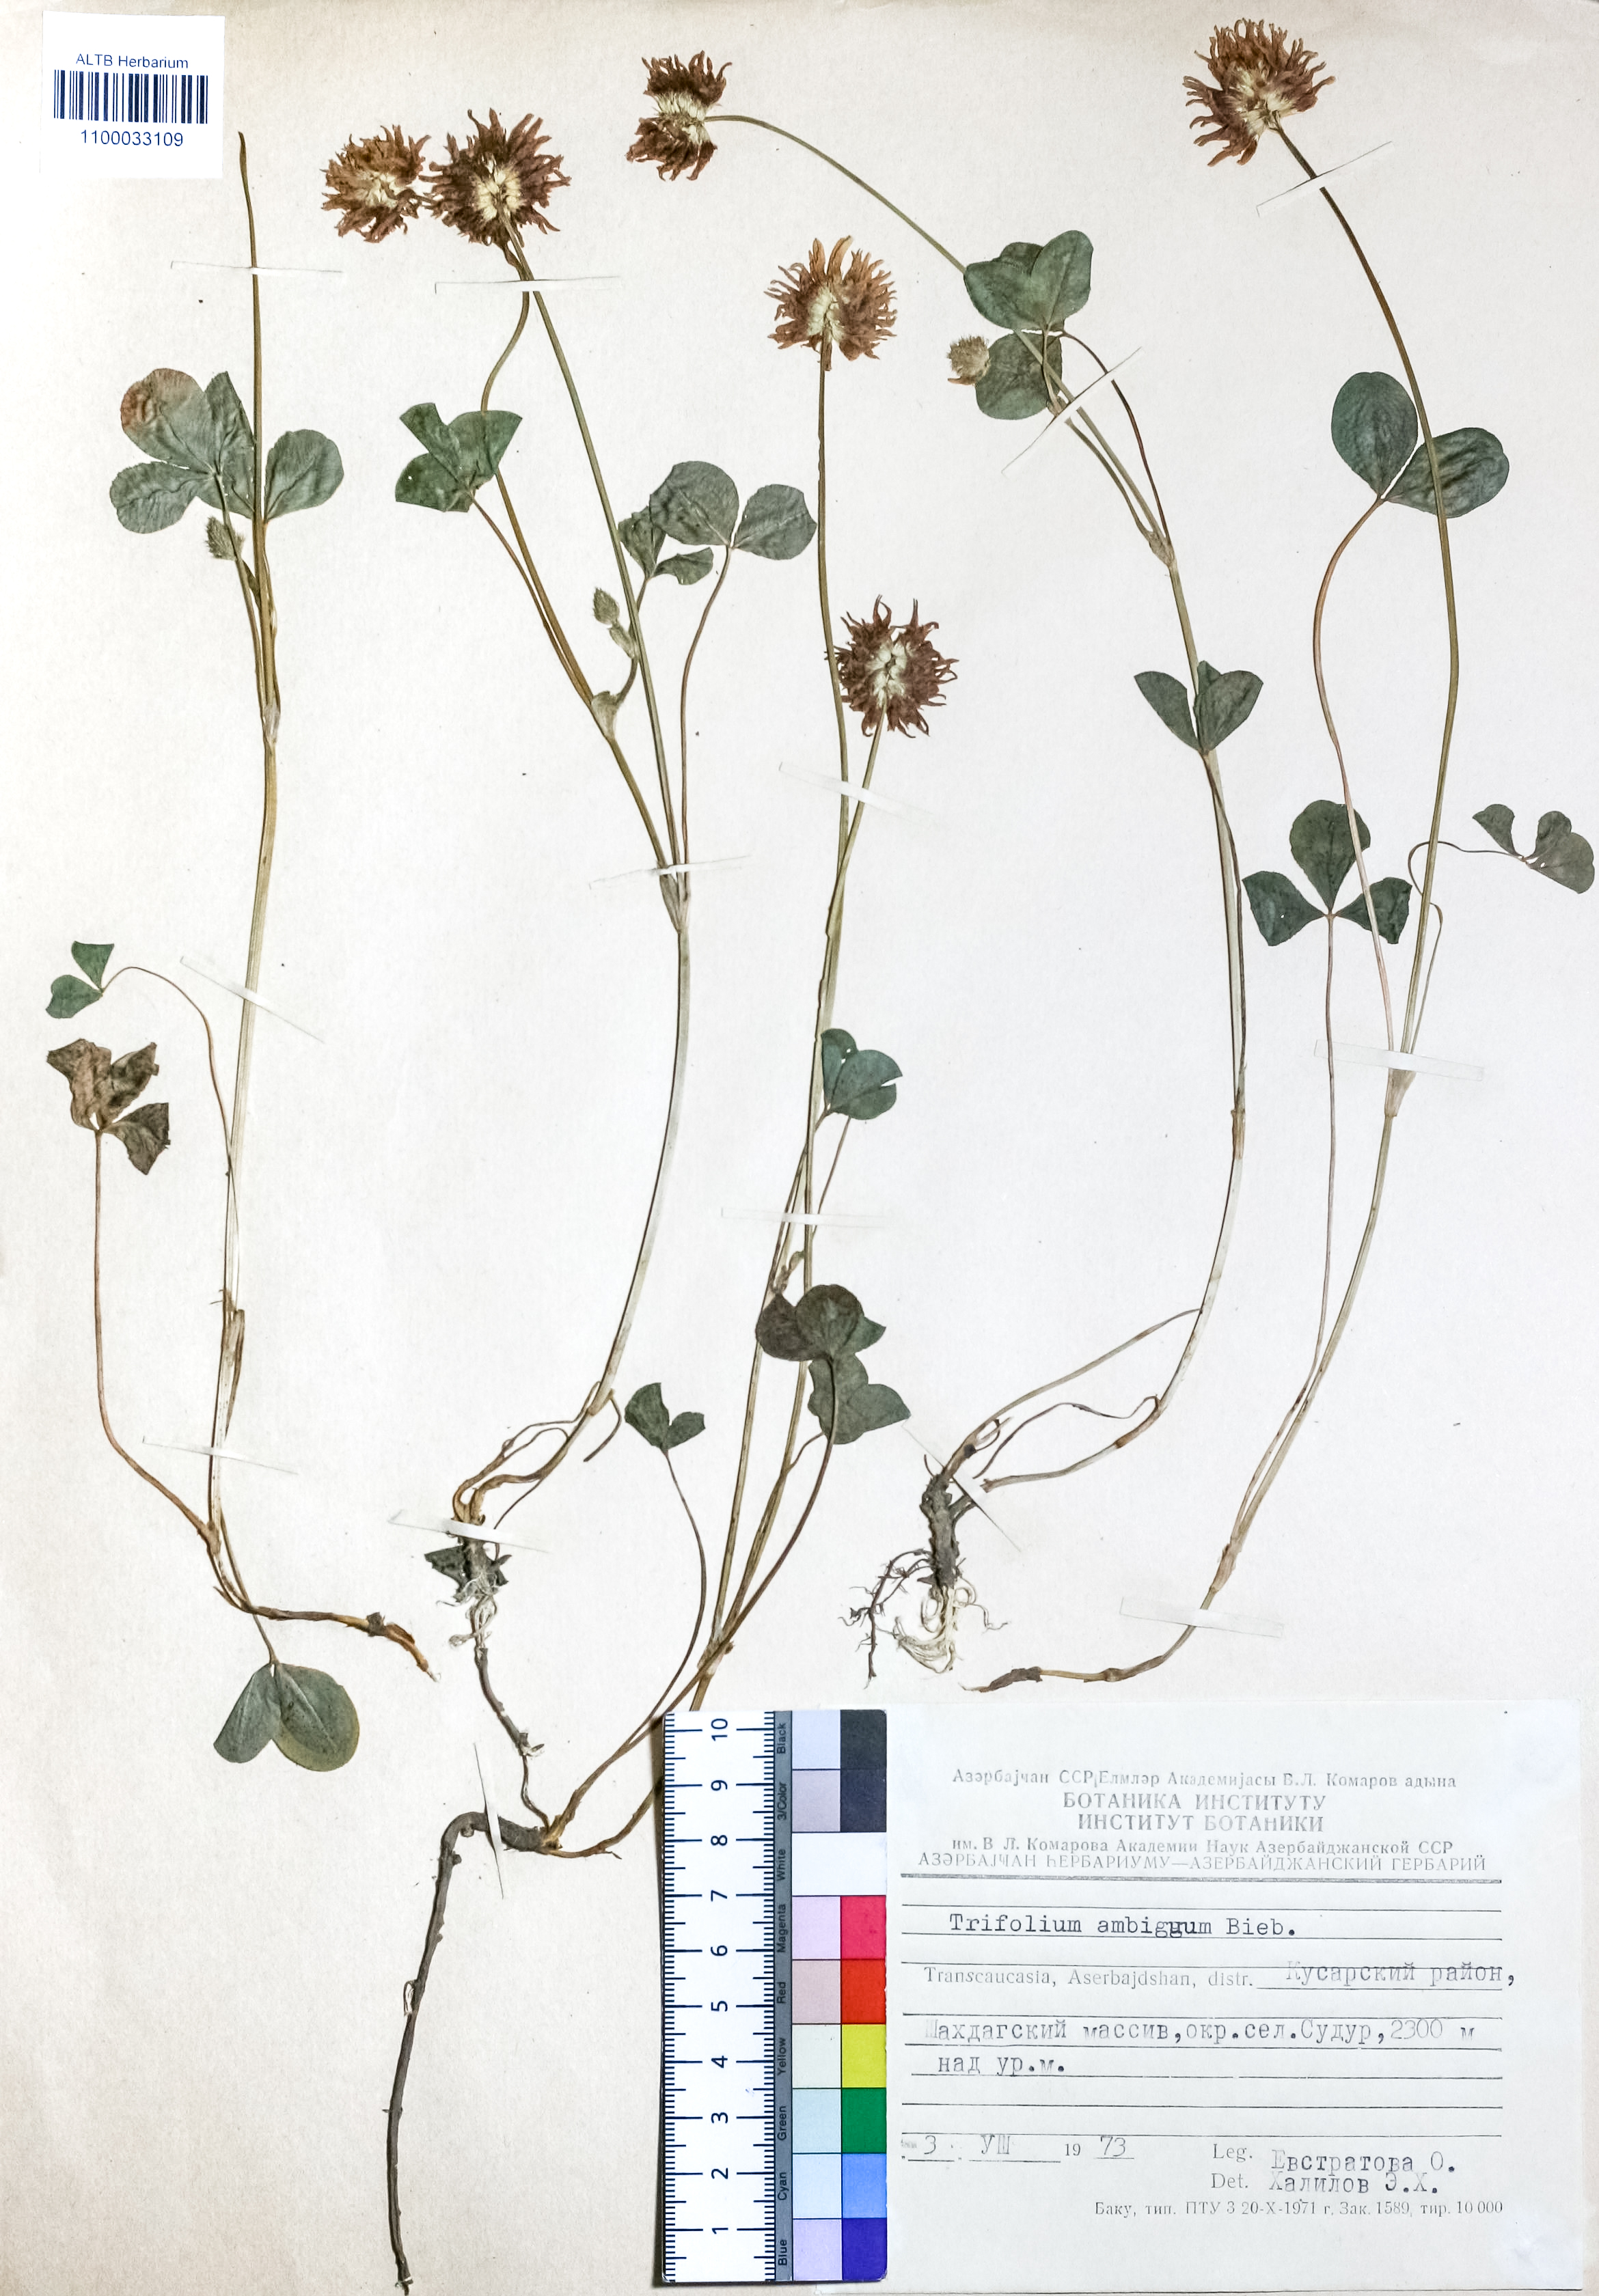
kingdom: Plantae
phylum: Tracheophyta
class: Magnoliopsida
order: Fabales
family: Fabaceae
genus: Trifolium
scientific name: Trifolium ambiguum
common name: Kura clover
